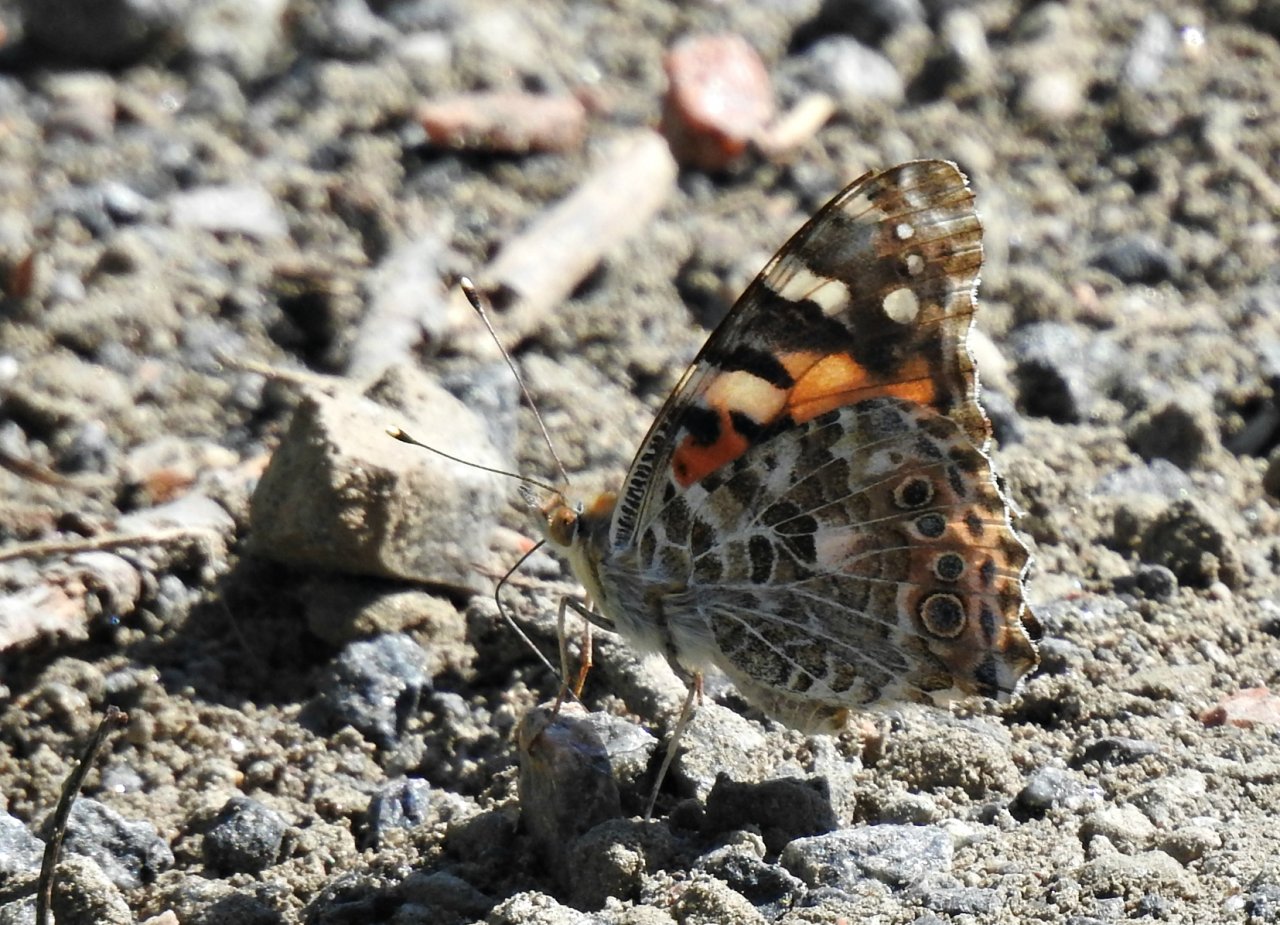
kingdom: Animalia
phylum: Arthropoda
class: Insecta
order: Lepidoptera
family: Nymphalidae
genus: Vanessa
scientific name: Vanessa cardui
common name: Painted Lady
